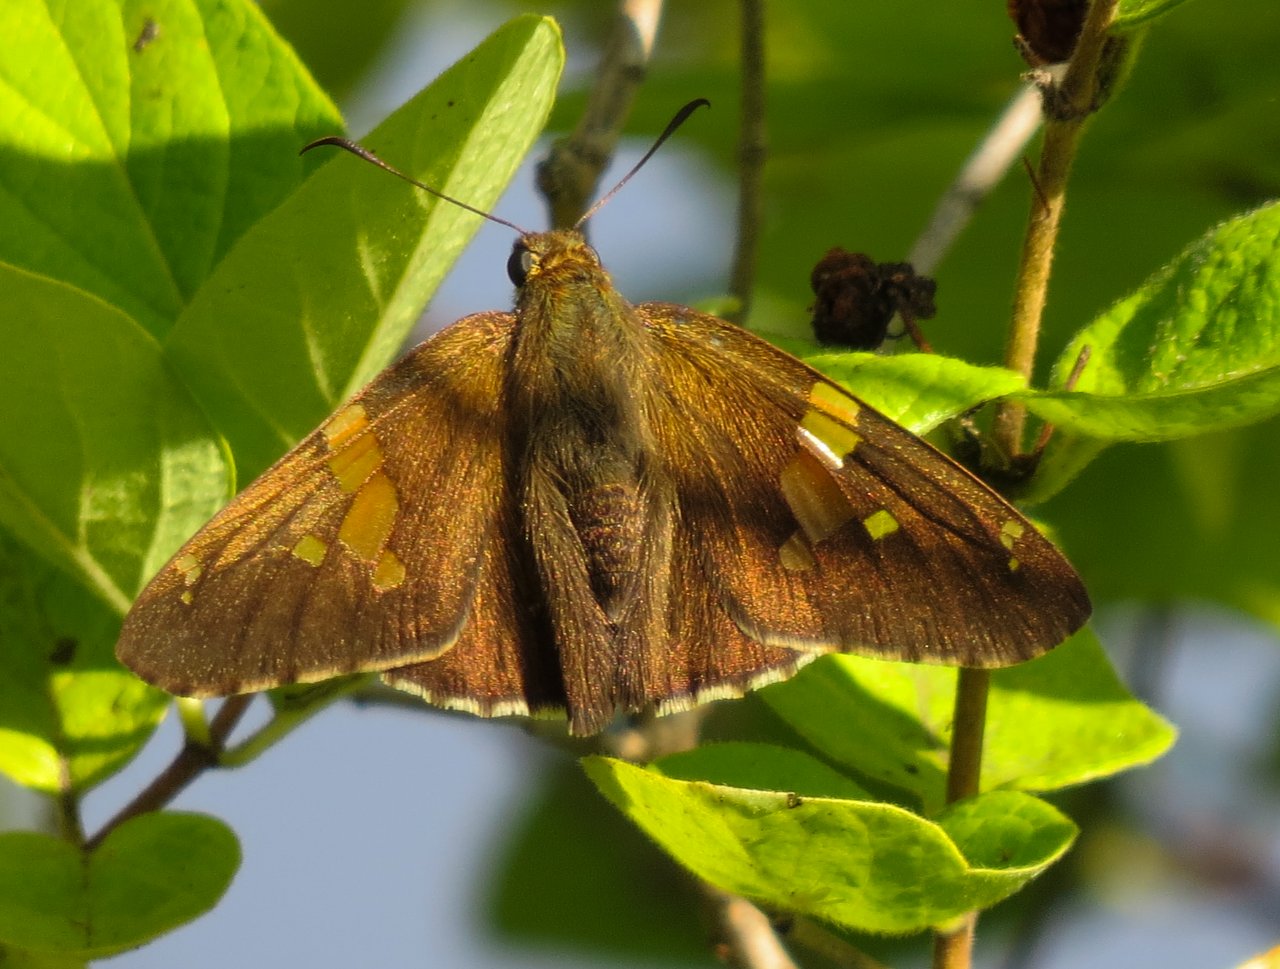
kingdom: Animalia
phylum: Arthropoda
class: Insecta
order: Lepidoptera
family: Hesperiidae
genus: Epargyreus
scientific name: Epargyreus clarus
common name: Silver-spotted Skipper
